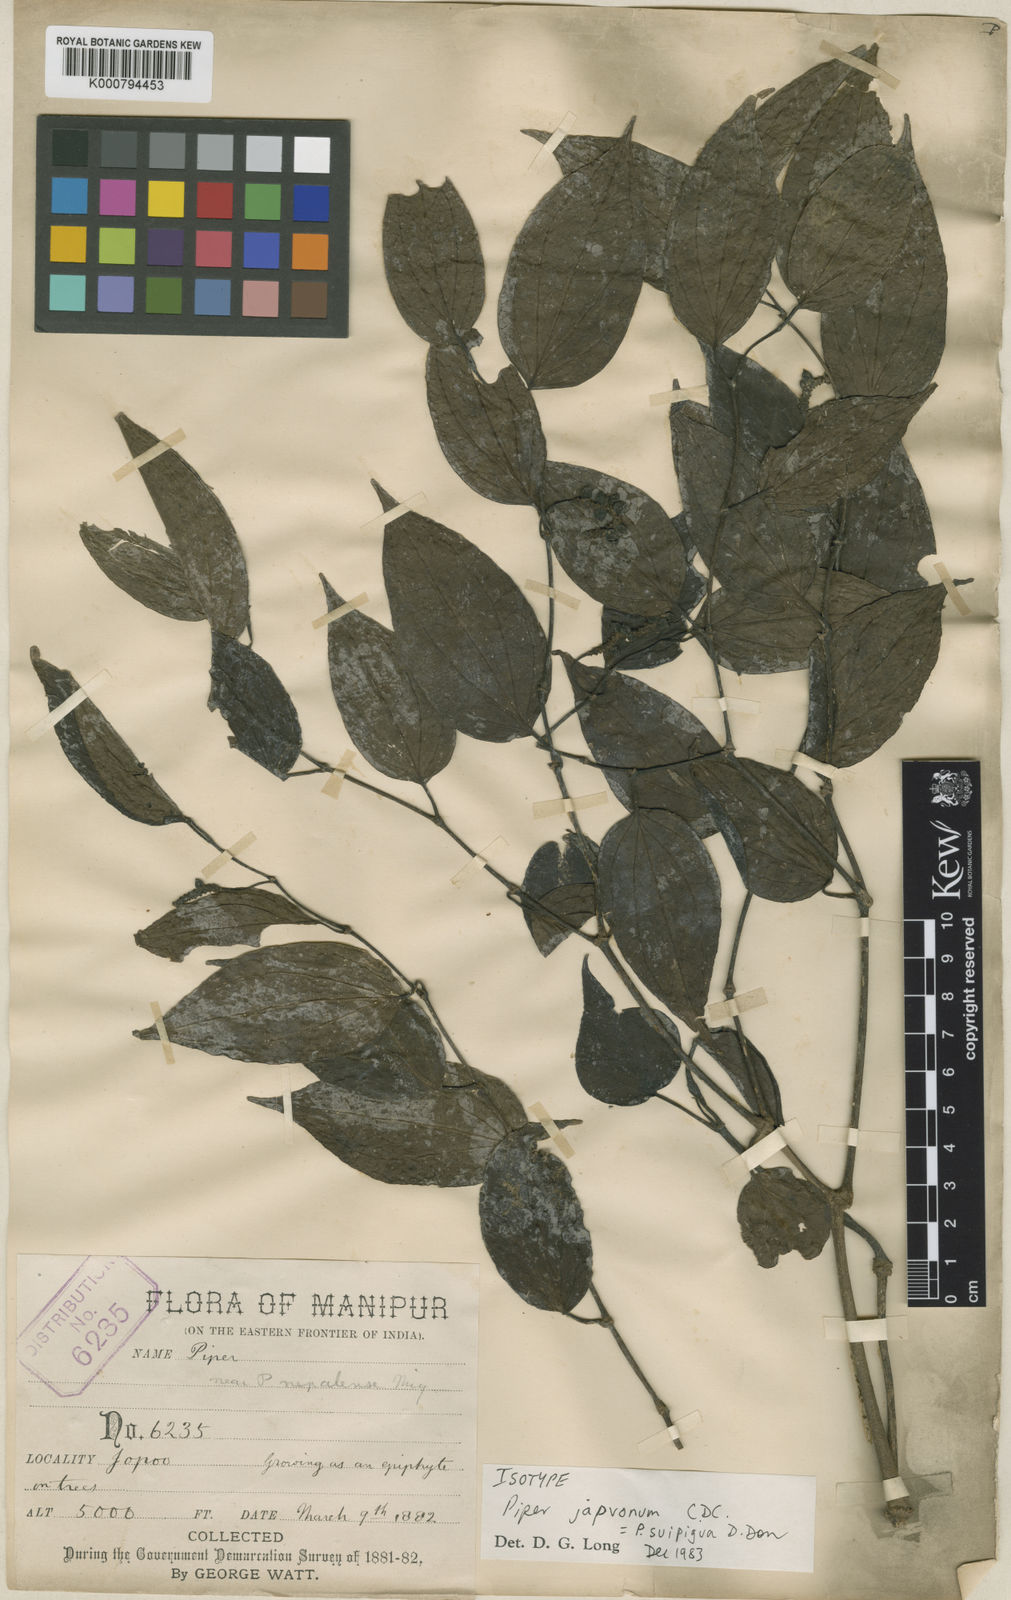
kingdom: Plantae
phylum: Tracheophyta
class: Magnoliopsida
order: Piperales
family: Piperaceae
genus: Piper
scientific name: Piper
